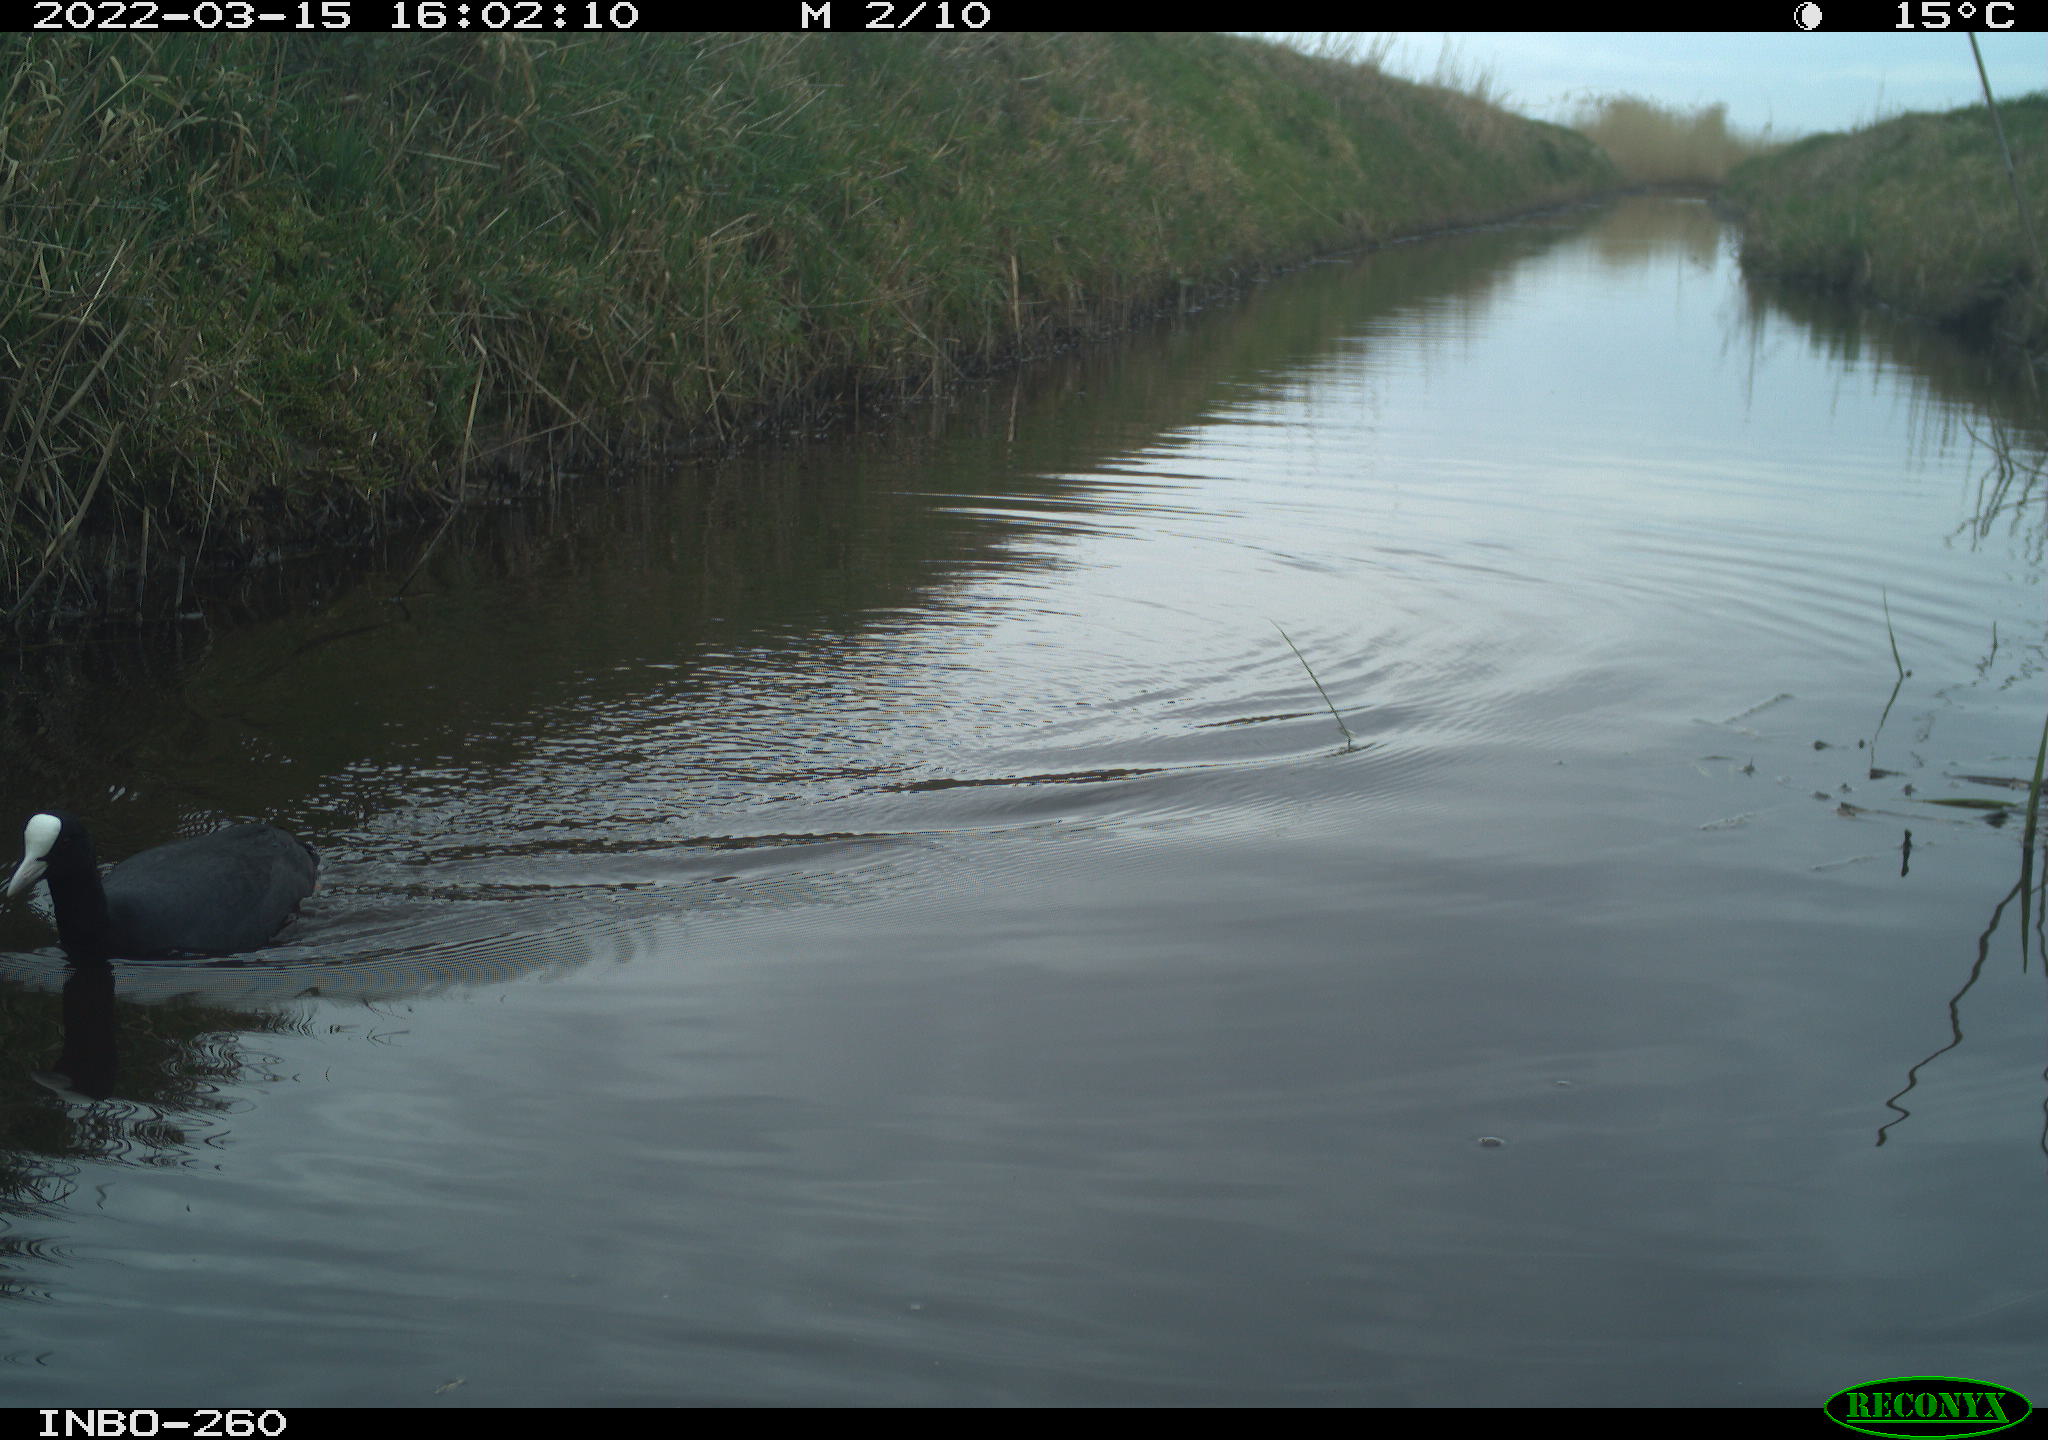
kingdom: Animalia
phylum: Chordata
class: Aves
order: Gruiformes
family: Rallidae
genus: Fulica
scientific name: Fulica atra
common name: Eurasian coot
